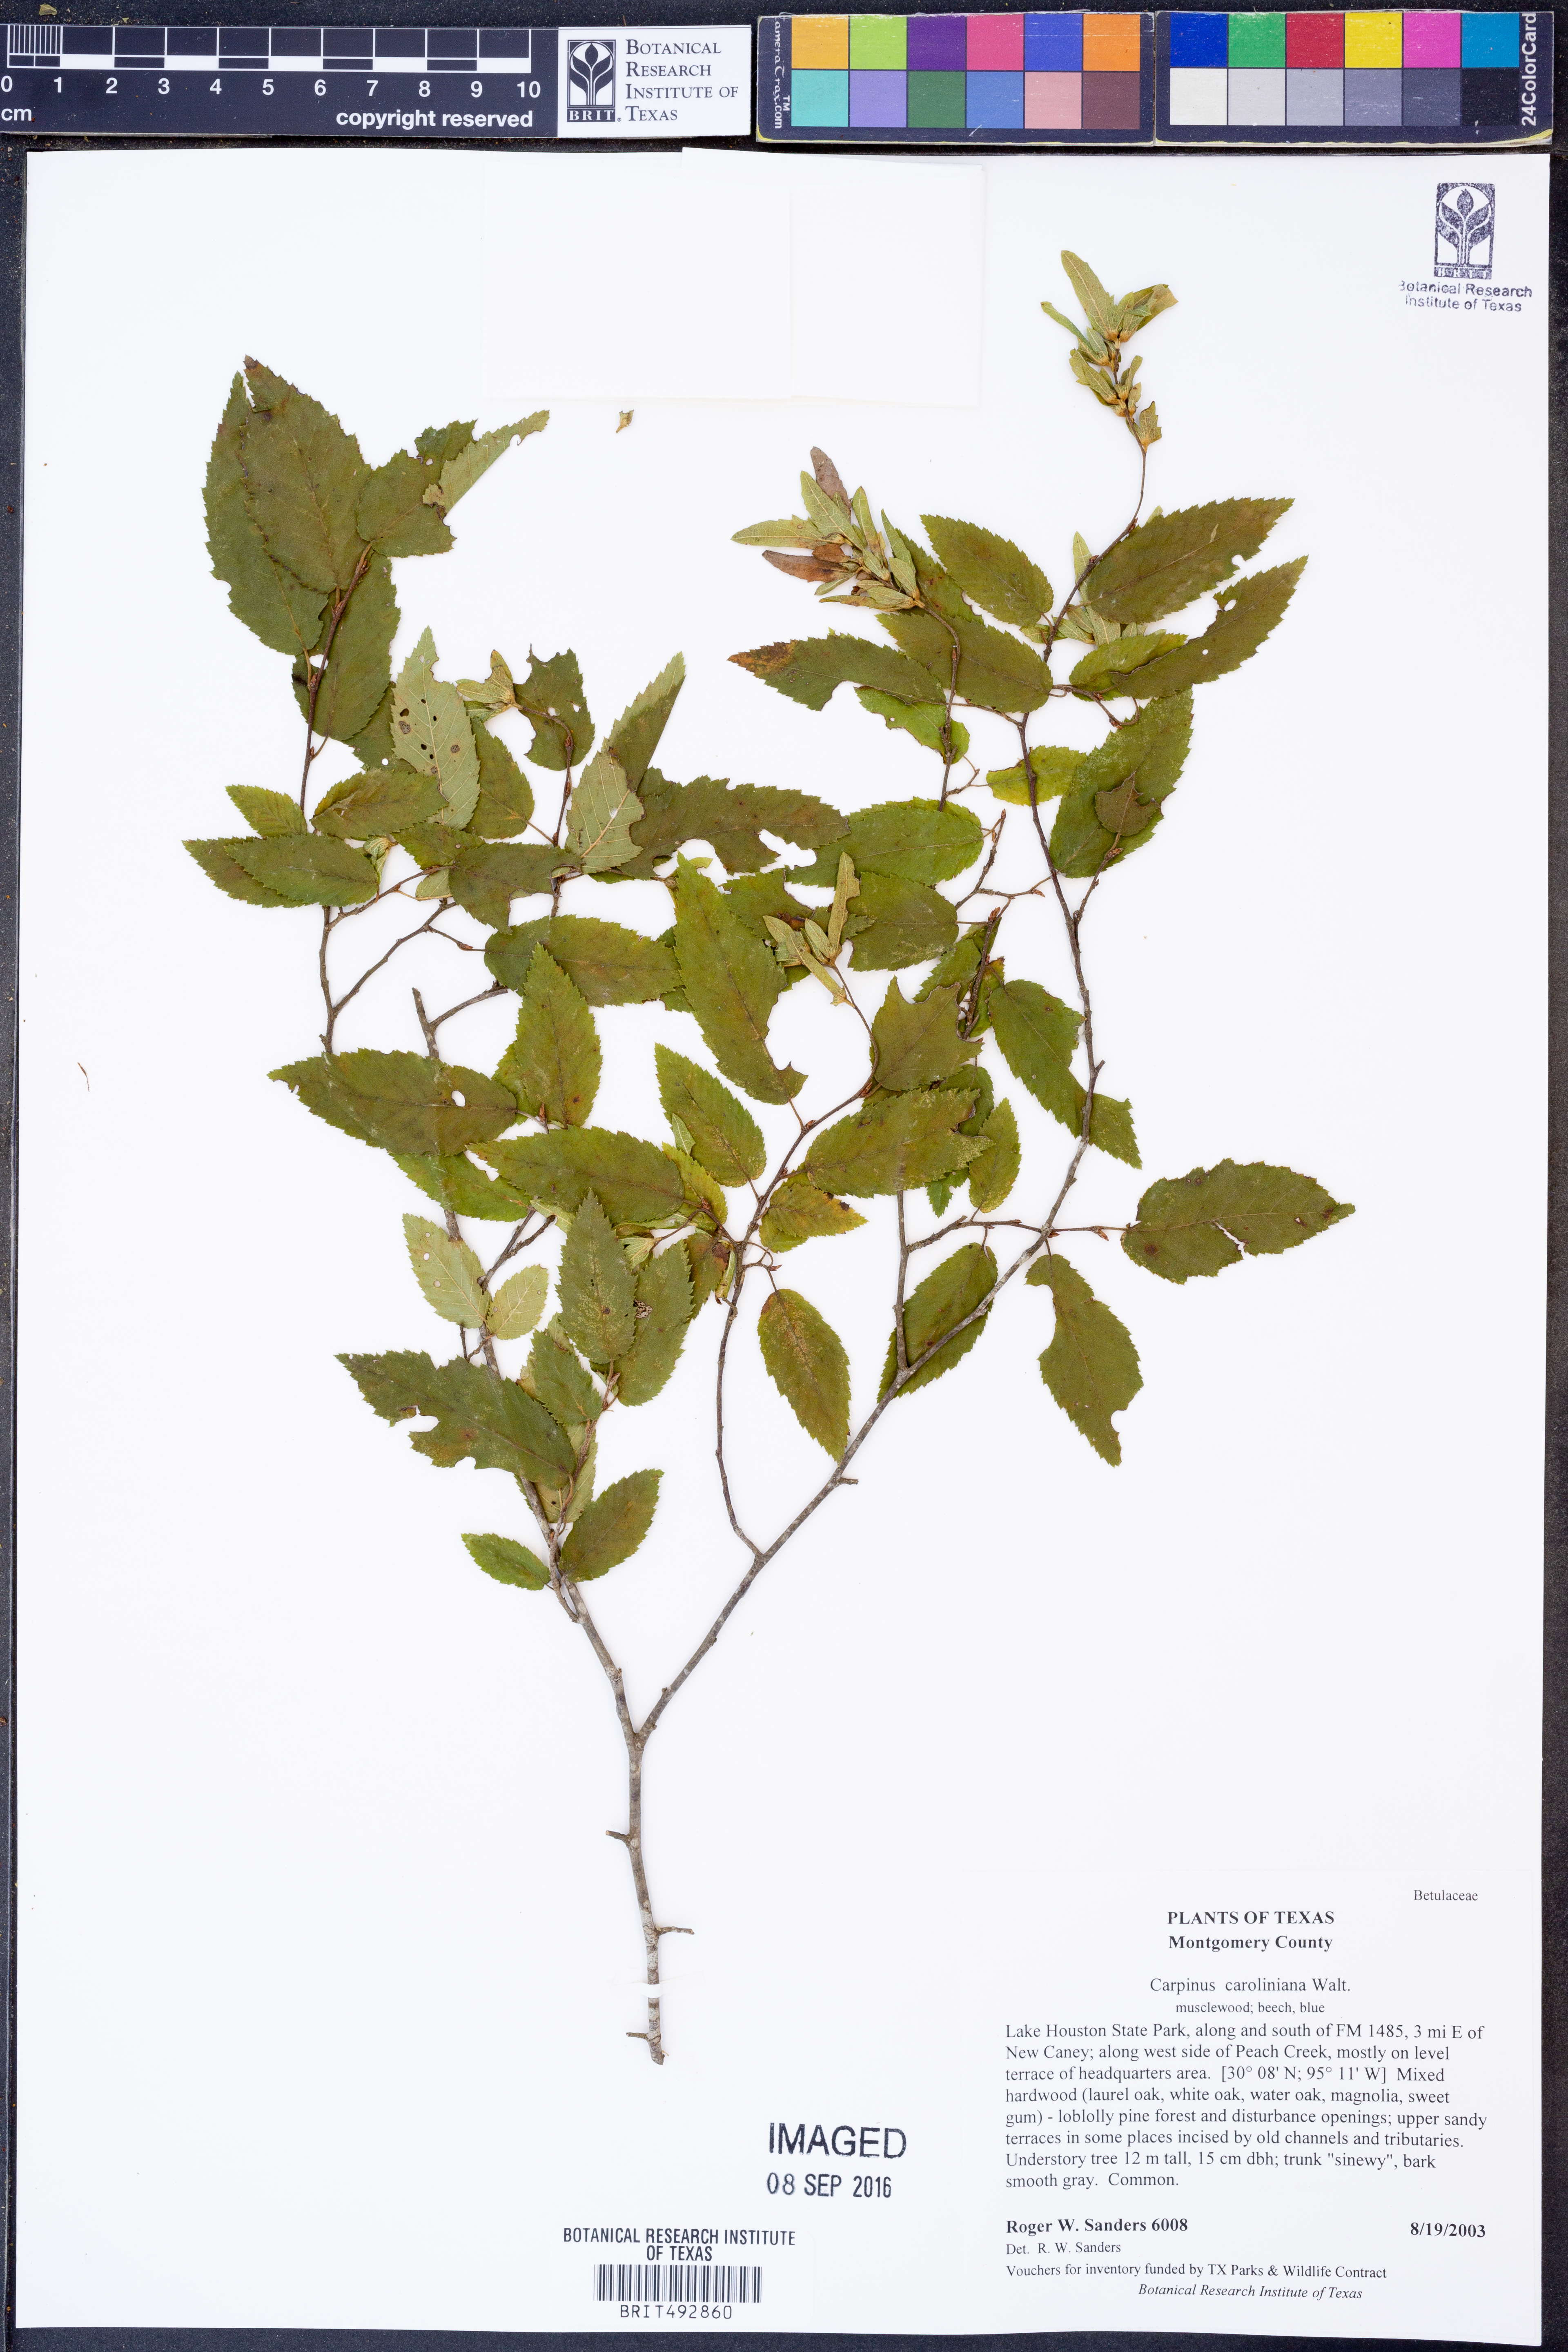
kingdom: Plantae
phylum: Tracheophyta
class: Magnoliopsida
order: Fagales
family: Betulaceae
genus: Carpinus
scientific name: Carpinus caroliniana
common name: American hornbeam
